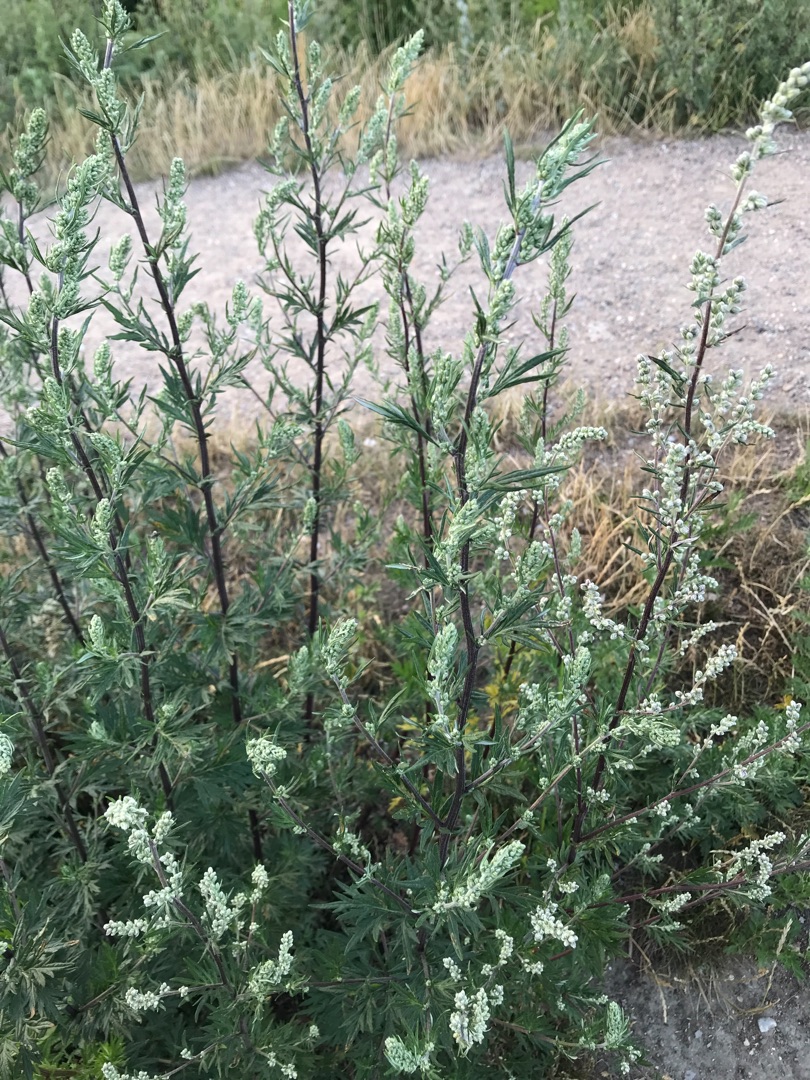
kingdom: Plantae
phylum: Tracheophyta
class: Magnoliopsida
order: Asterales
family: Asteraceae
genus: Artemisia
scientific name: Artemisia vulgaris
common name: Grå-bynke
